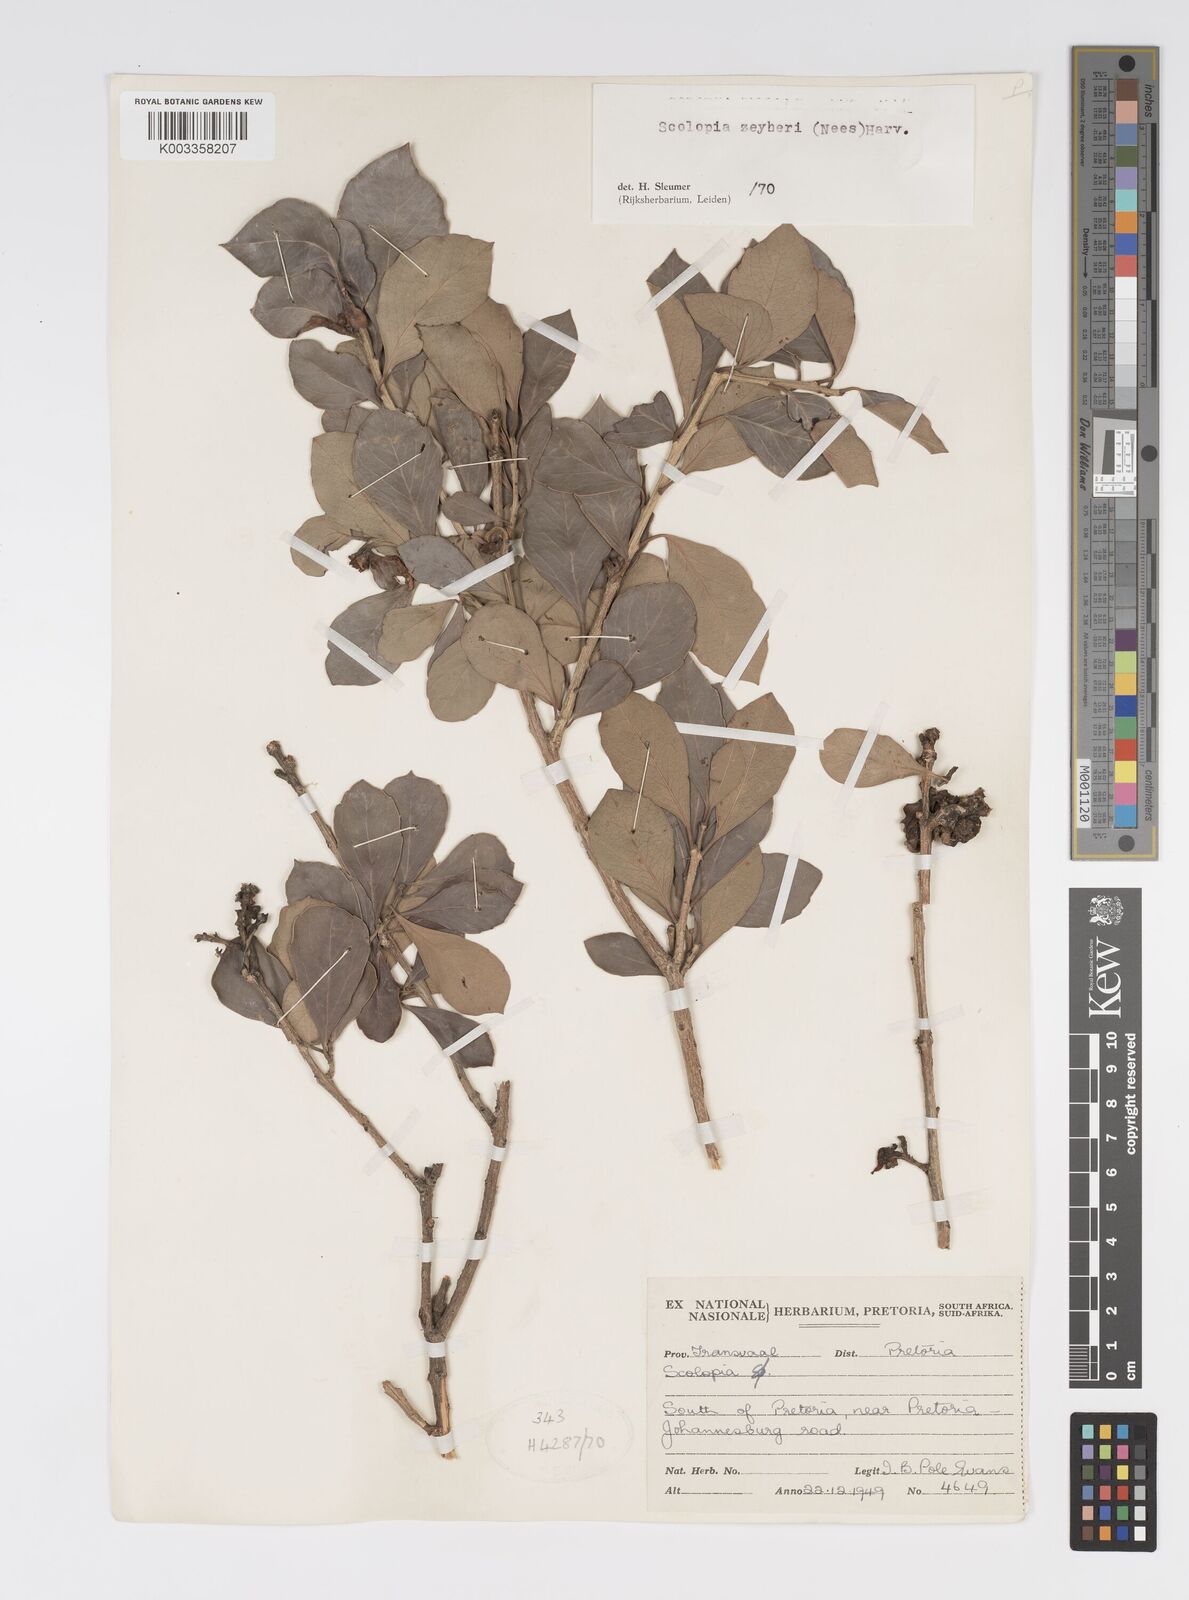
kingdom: Plantae
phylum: Tracheophyta
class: Magnoliopsida
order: Malpighiales
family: Salicaceae
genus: Scolopia
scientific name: Scolopia zeyheri
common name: Thorn pear
